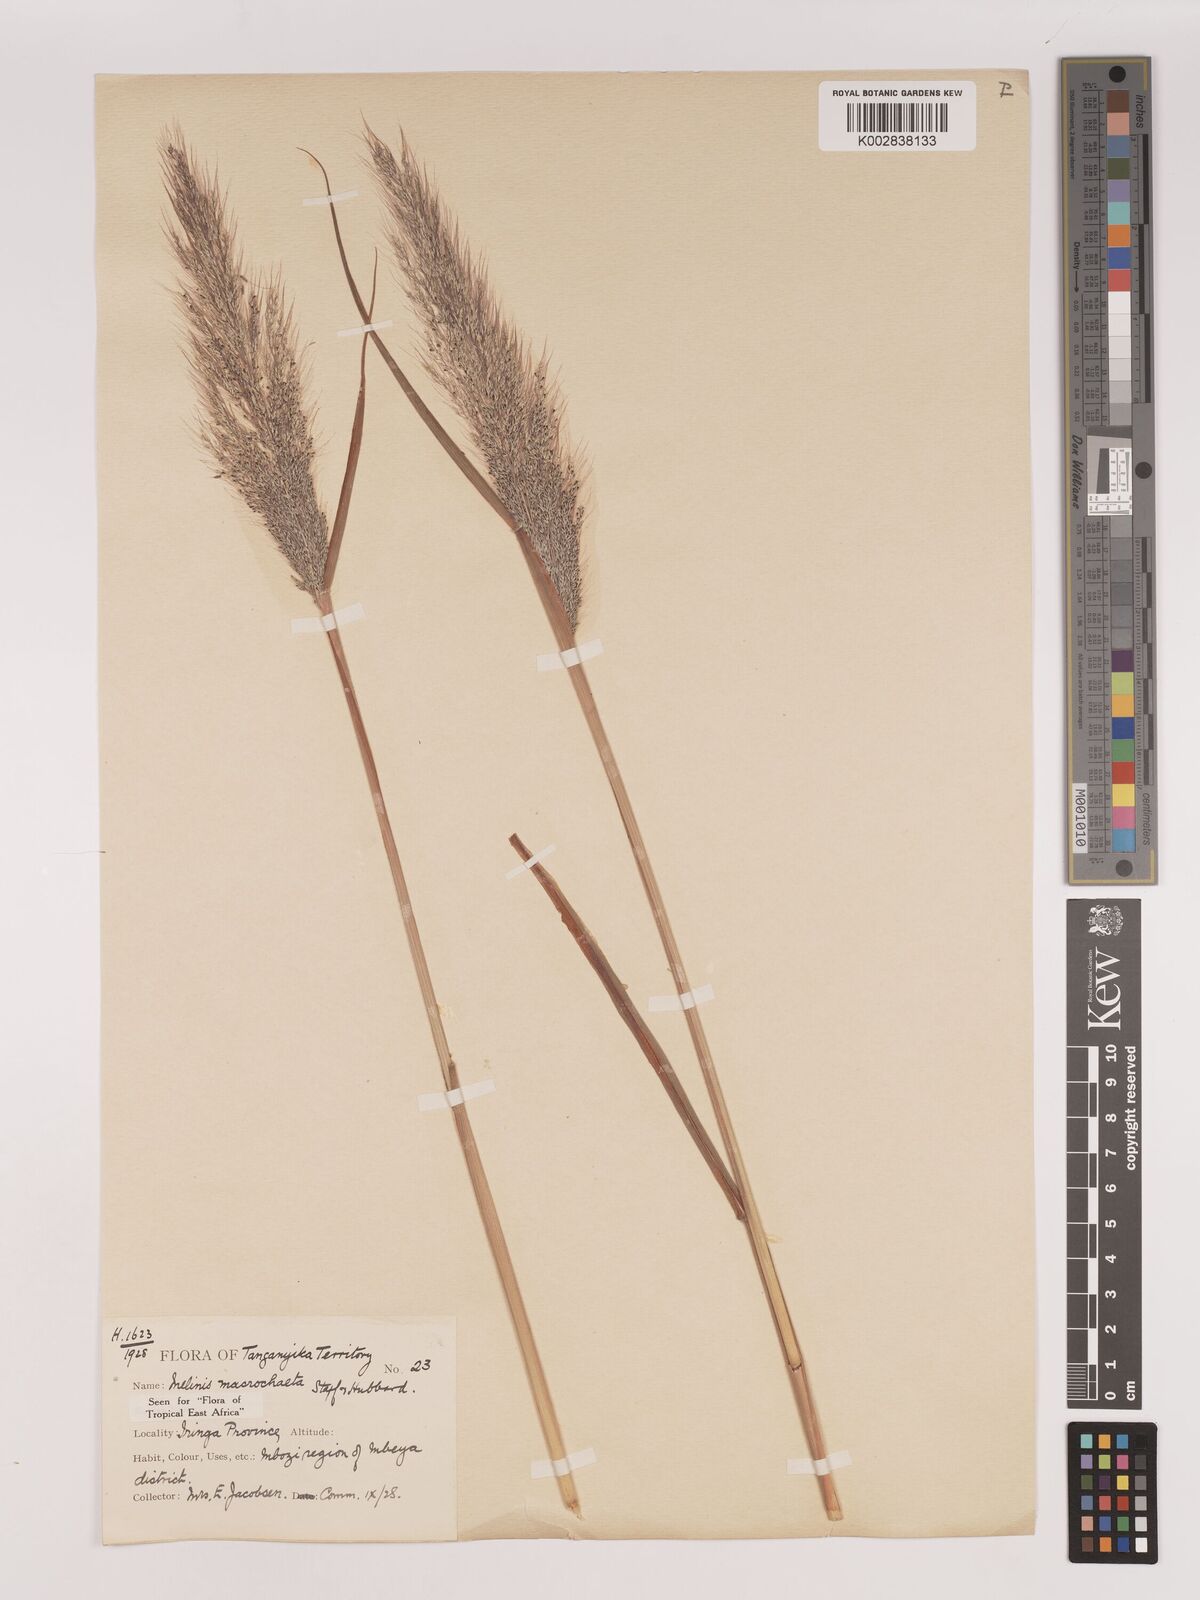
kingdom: Plantae
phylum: Tracheophyta
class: Liliopsida
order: Poales
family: Poaceae
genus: Melinis
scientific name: Melinis macrochaeta
